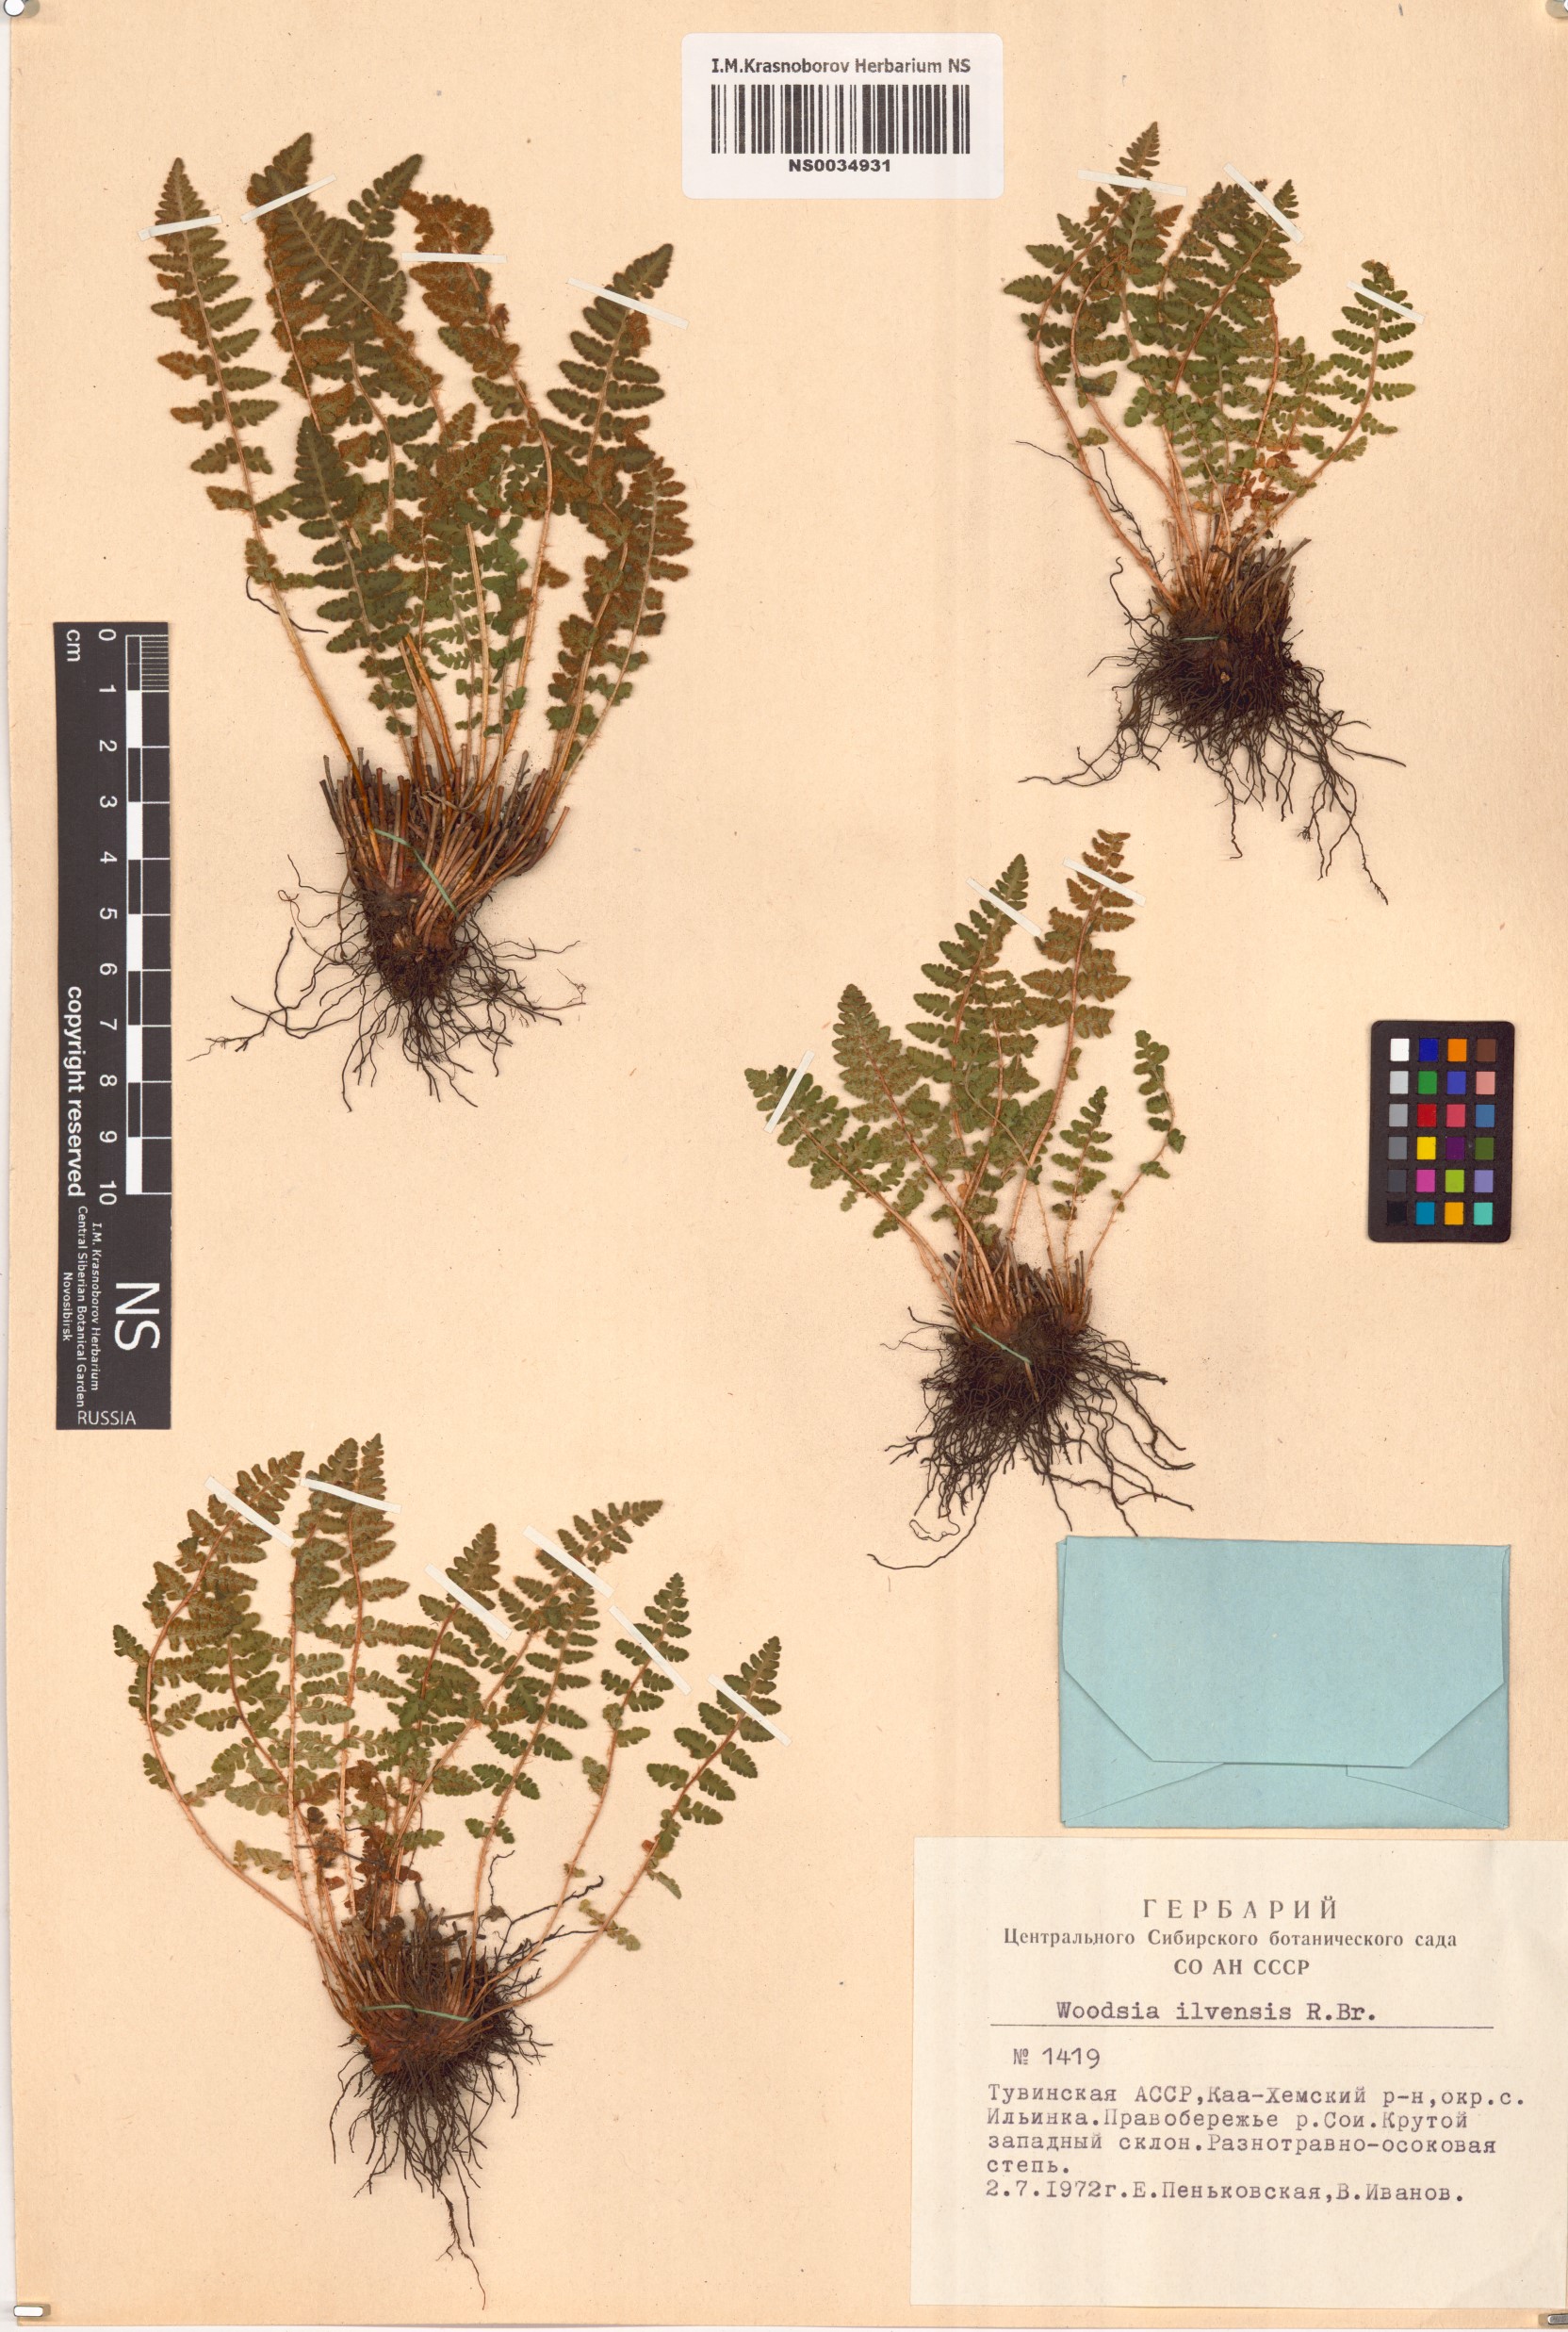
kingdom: Plantae
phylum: Tracheophyta
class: Polypodiopsida
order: Polypodiales
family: Woodsiaceae
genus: Woodsia
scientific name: Woodsia ilvensis
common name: Fragrant woodsia
